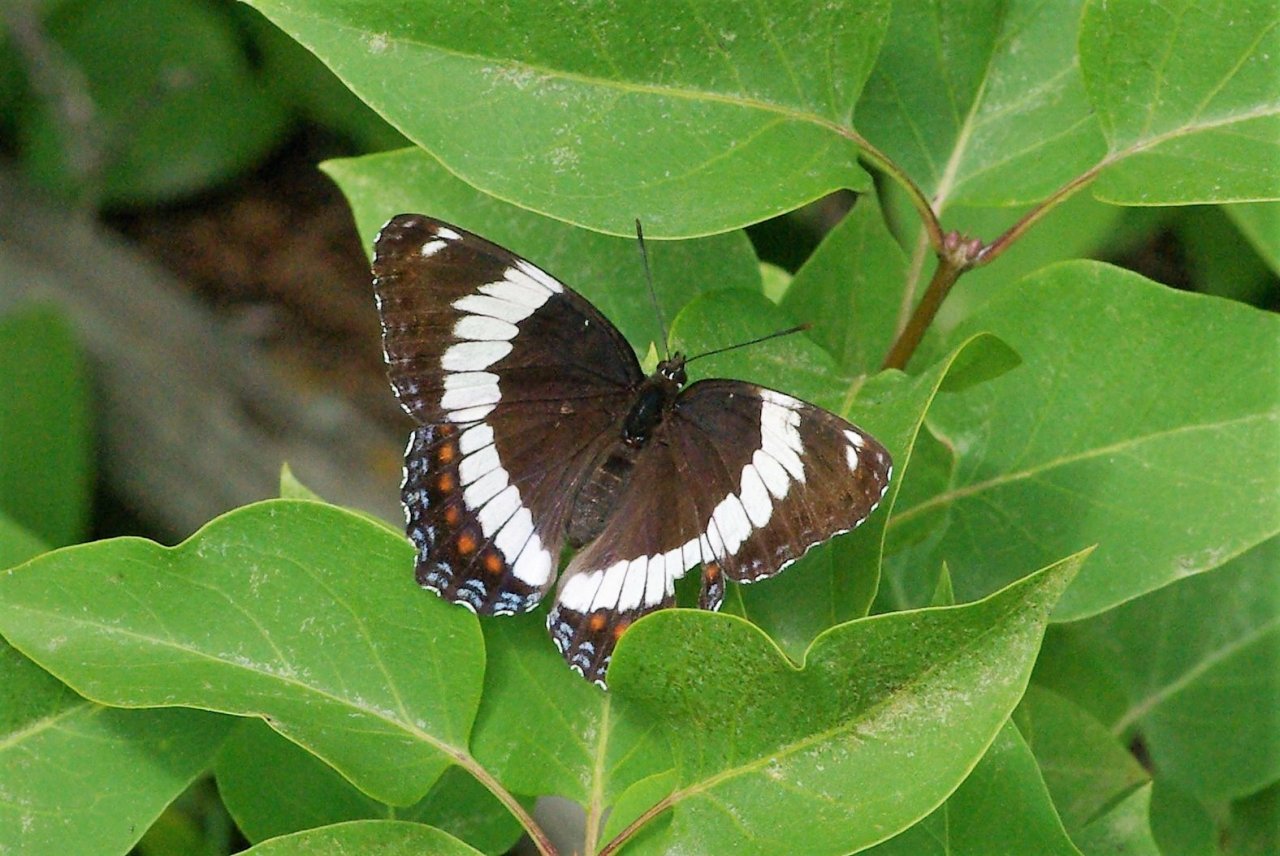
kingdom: Animalia
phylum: Arthropoda
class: Insecta
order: Lepidoptera
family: Nymphalidae
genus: Limenitis
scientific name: Limenitis arthemis
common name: Red-spotted Admiral
